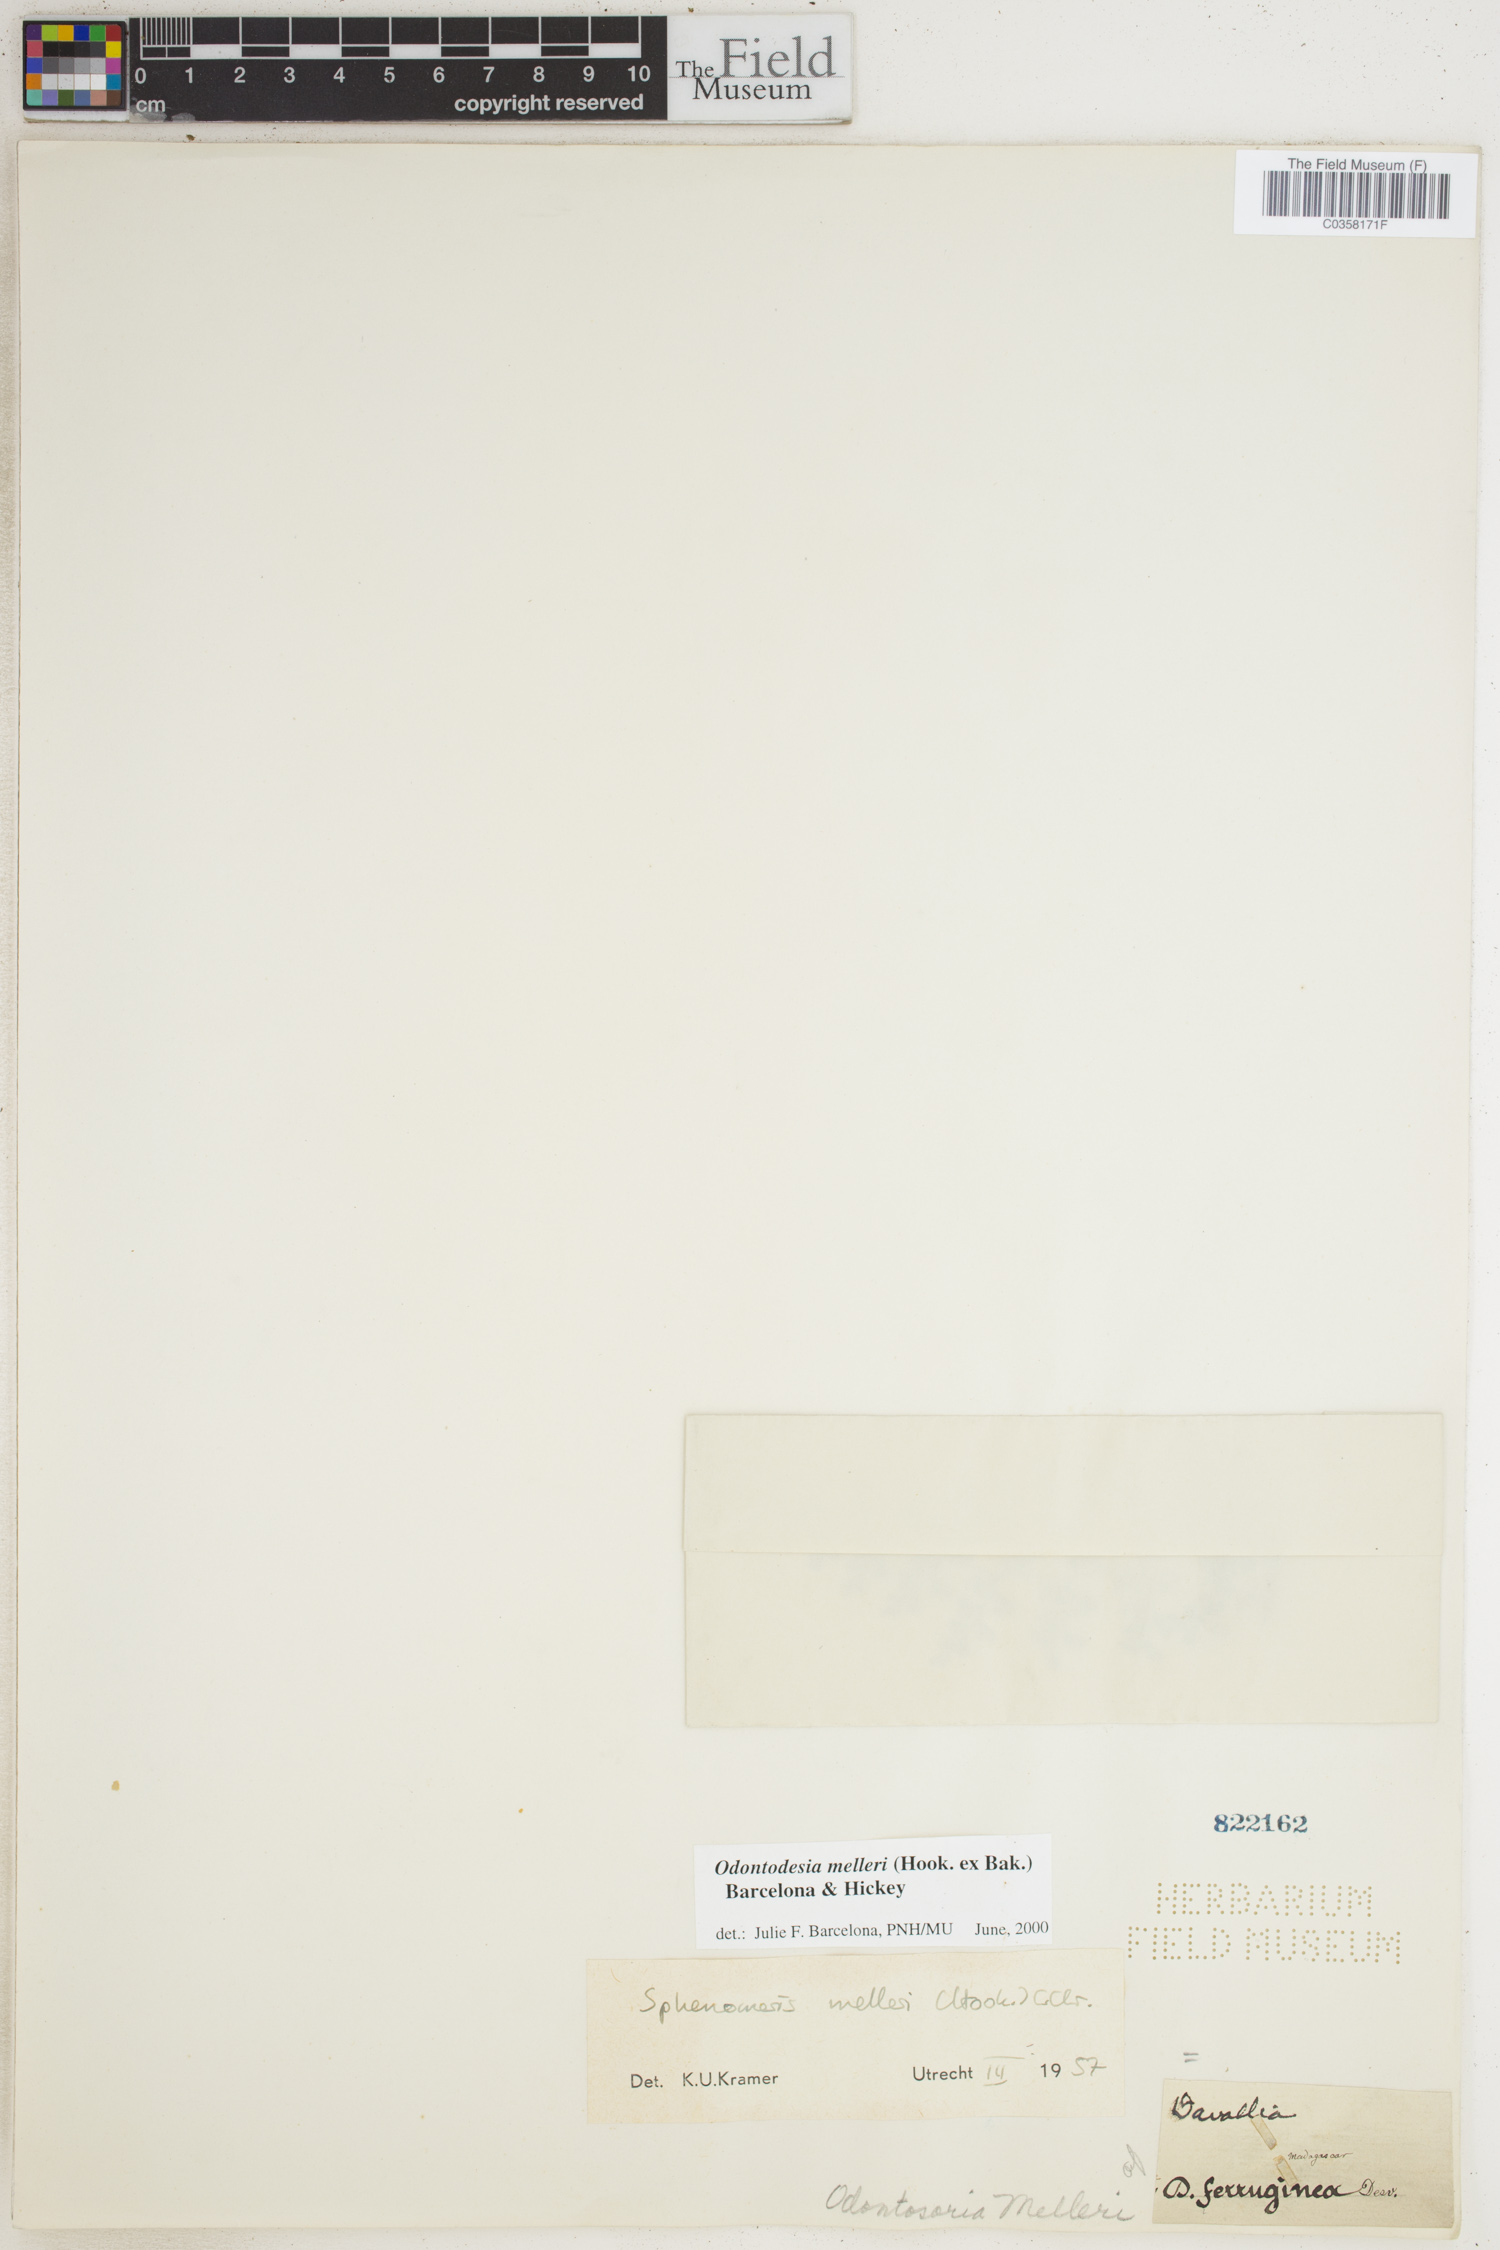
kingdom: Plantae
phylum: Tracheophyta
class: Polypodiopsida
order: Polypodiales
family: Lindsaeaceae
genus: Odontosoria
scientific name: Odontosoria melleri
